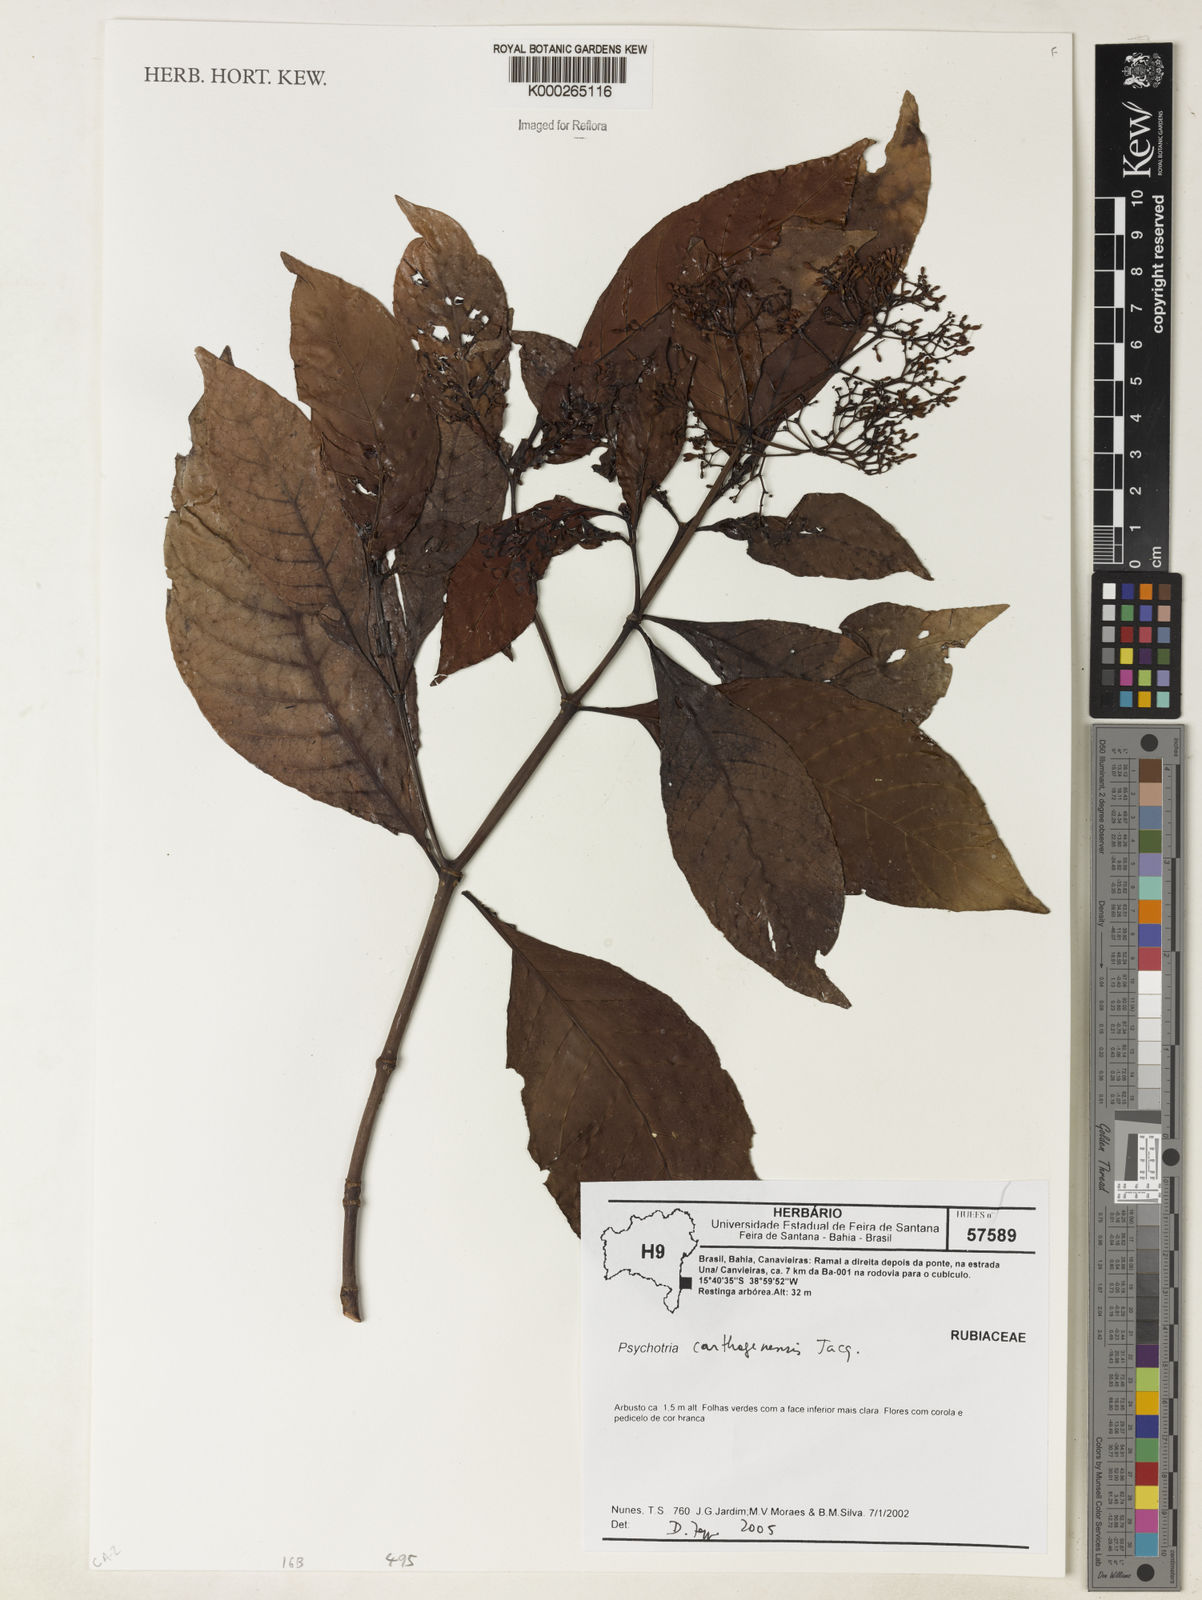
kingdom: Plantae
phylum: Tracheophyta
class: Magnoliopsida
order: Gentianales
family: Rubiaceae
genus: Psychotria
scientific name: Psychotria carthagenensis
